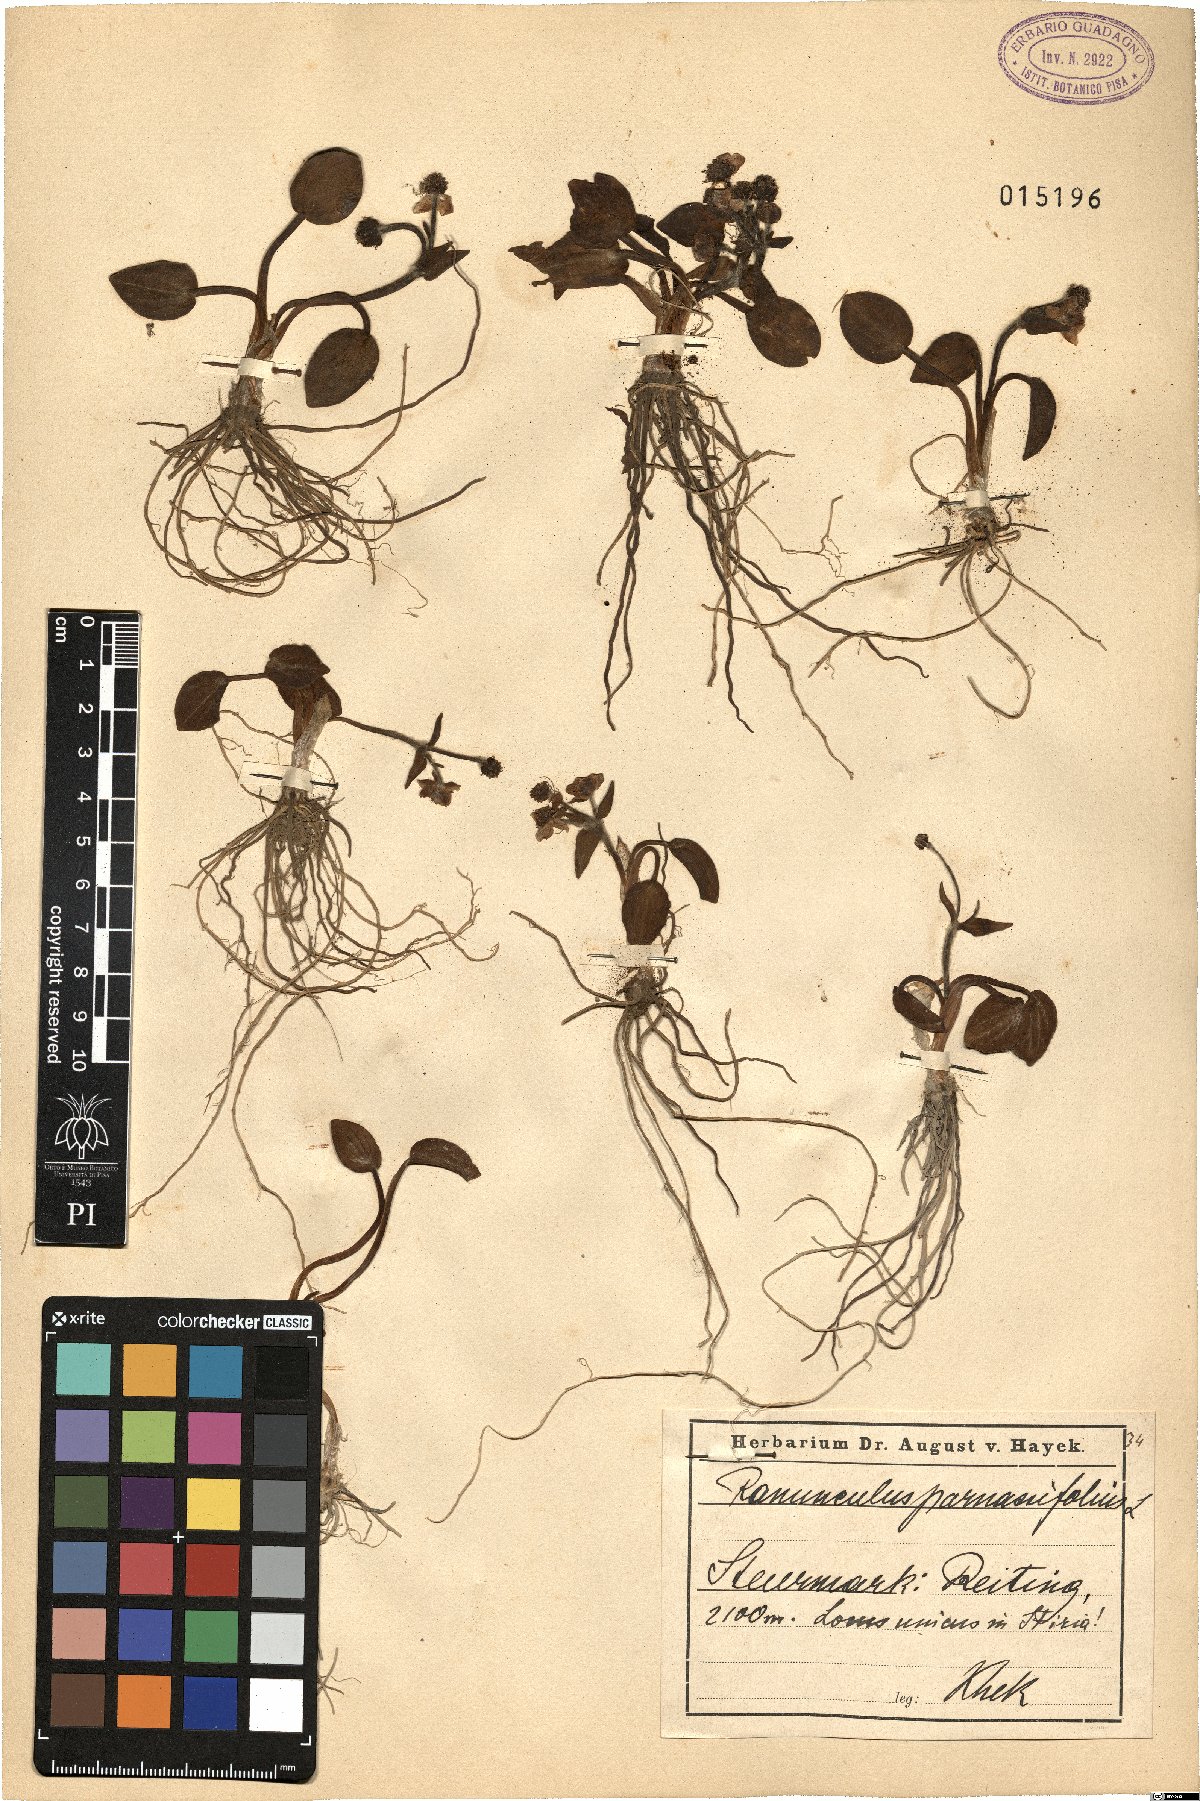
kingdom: Plantae
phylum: Tracheophyta
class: Magnoliopsida
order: Ranunculales
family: Ranunculaceae
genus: Ranunculus
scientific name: Ranunculus parnassiifolius
